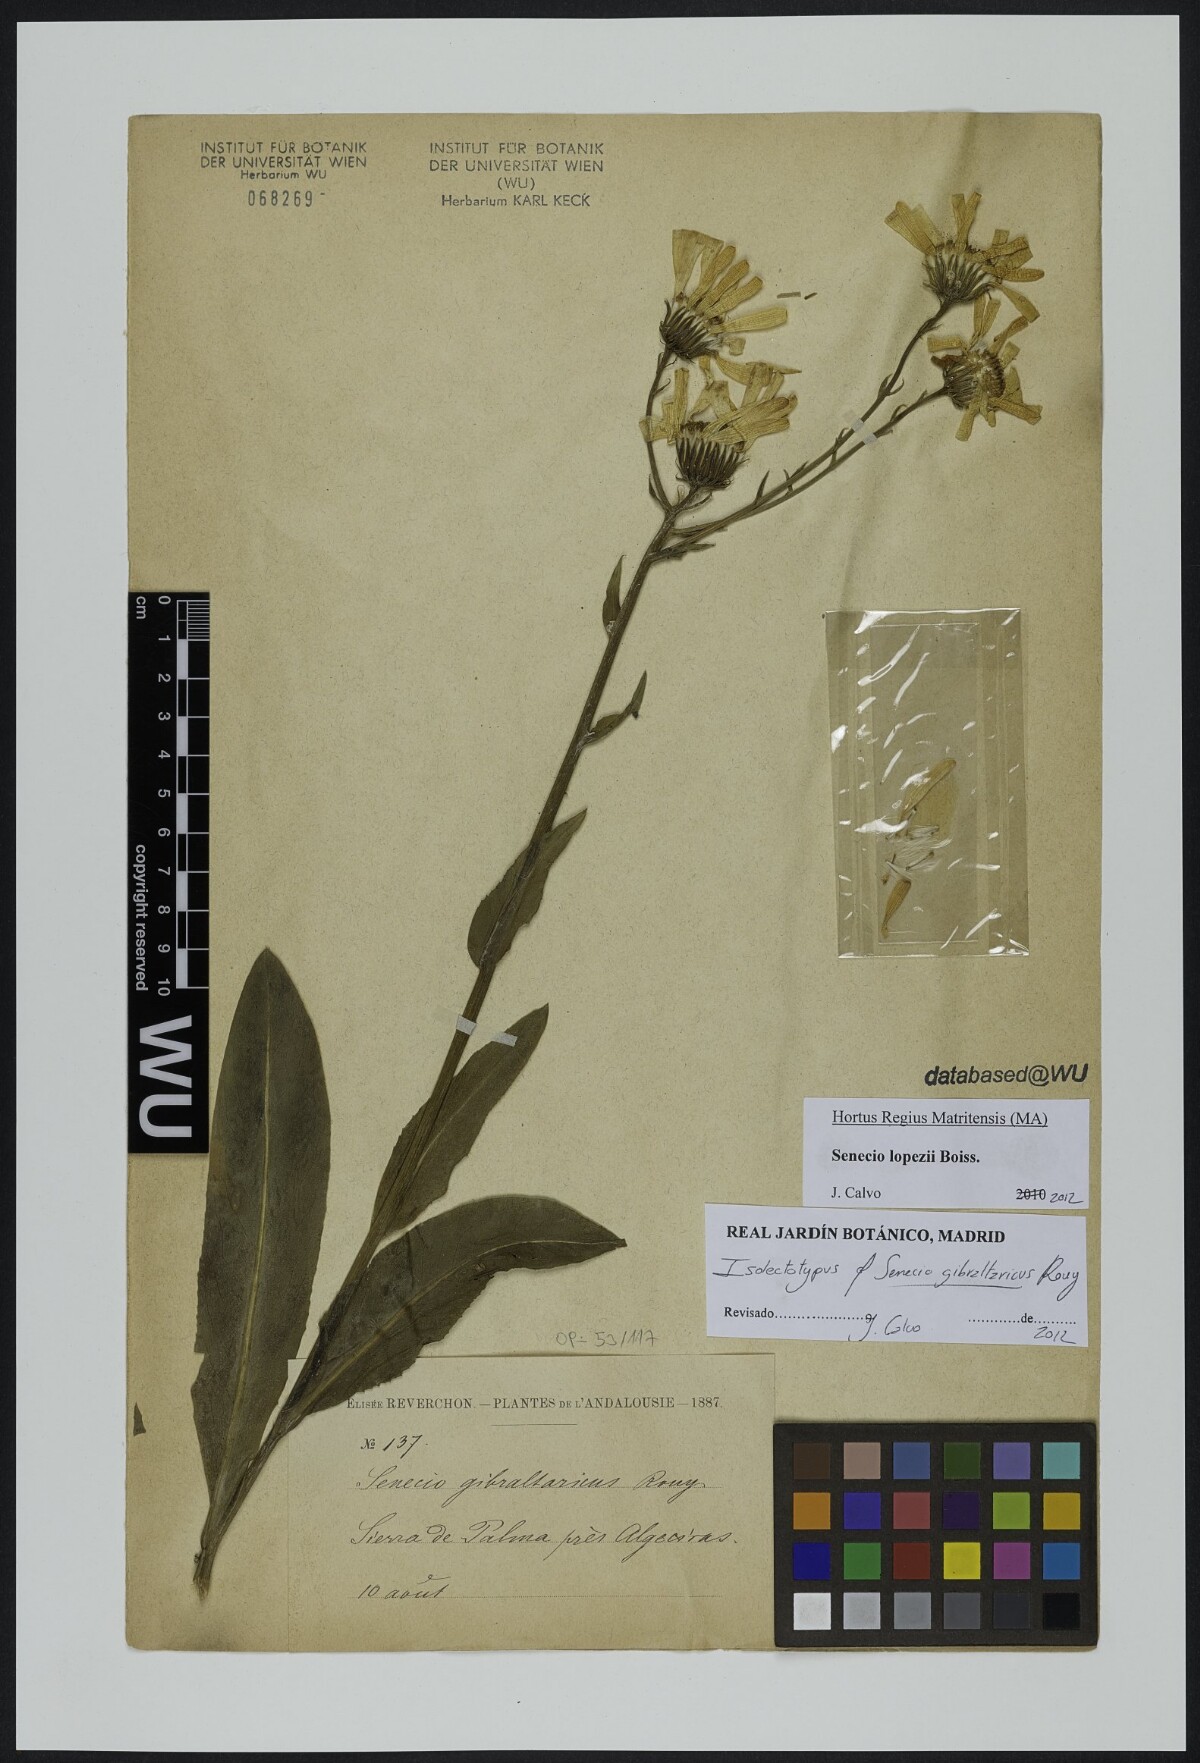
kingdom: Plantae
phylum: Tracheophyta
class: Magnoliopsida
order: Asterales
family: Asteraceae
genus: Senecio
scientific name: Senecio lopezii
